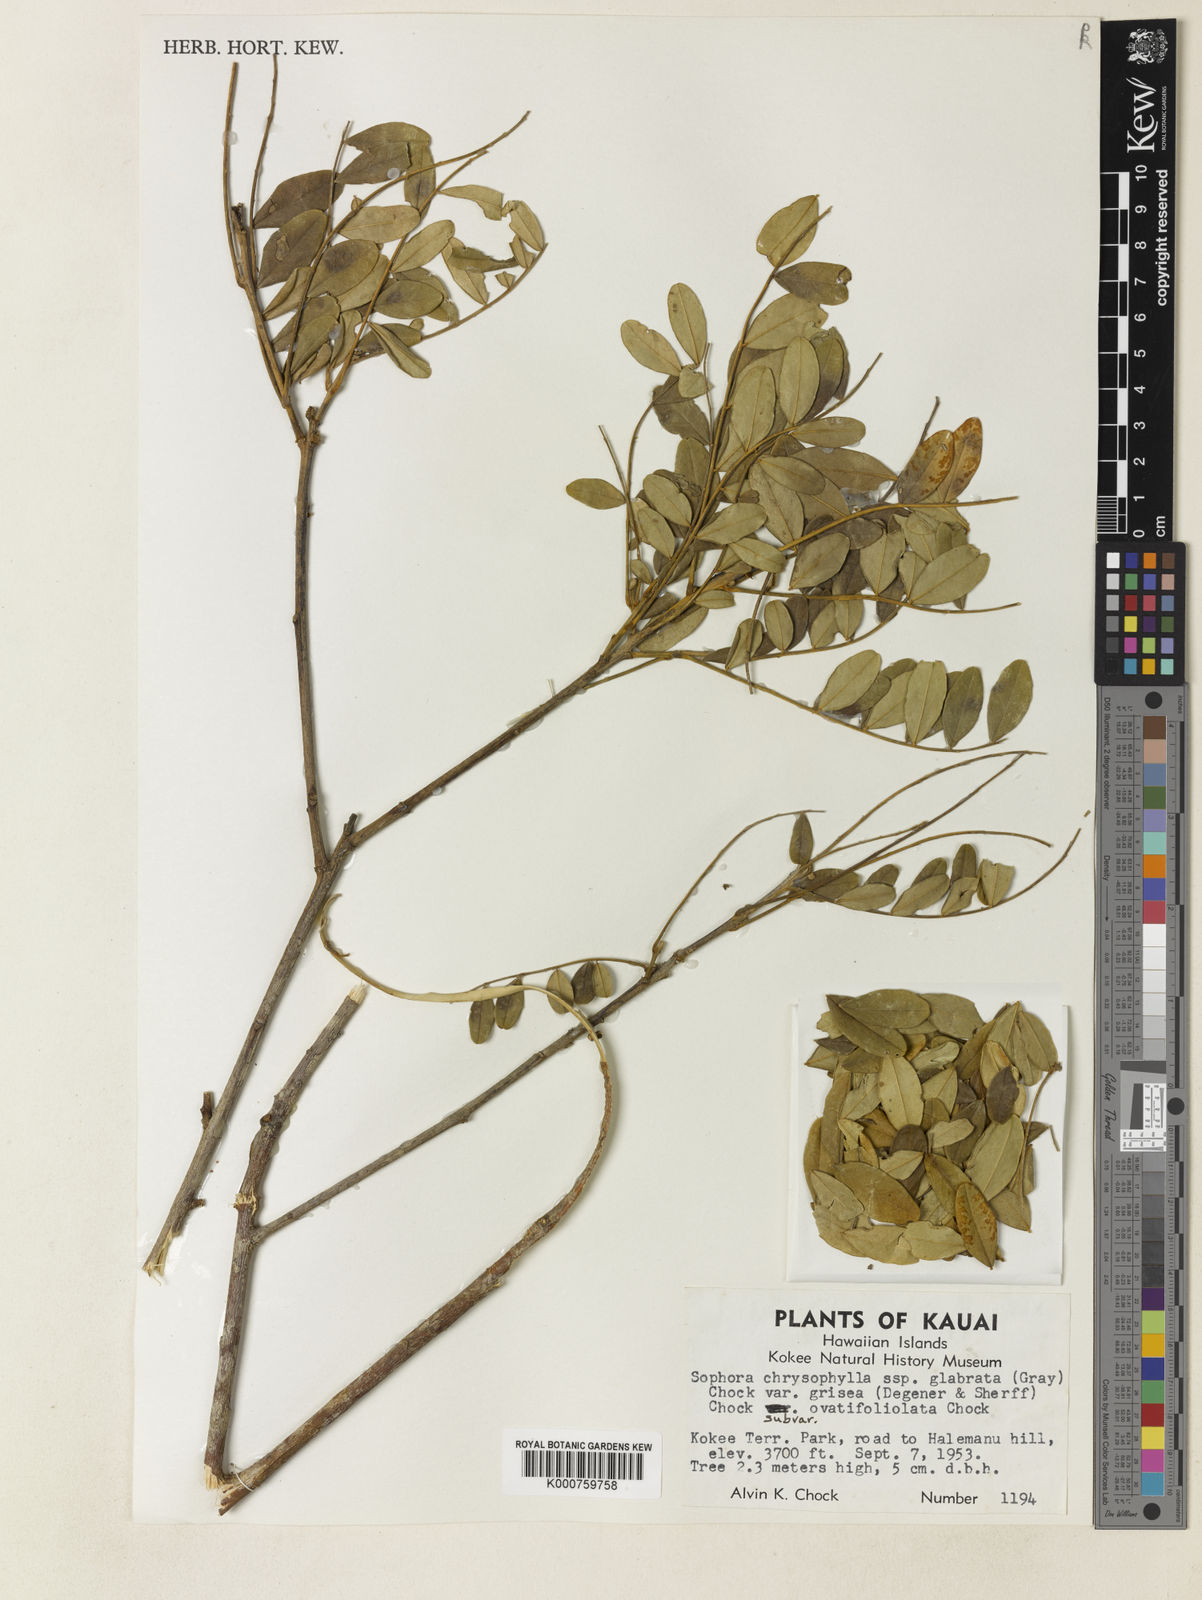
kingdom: Plantae
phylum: Tracheophyta
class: Magnoliopsida
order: Fabales
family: Fabaceae
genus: Sophora
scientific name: Sophora chrysophylla
